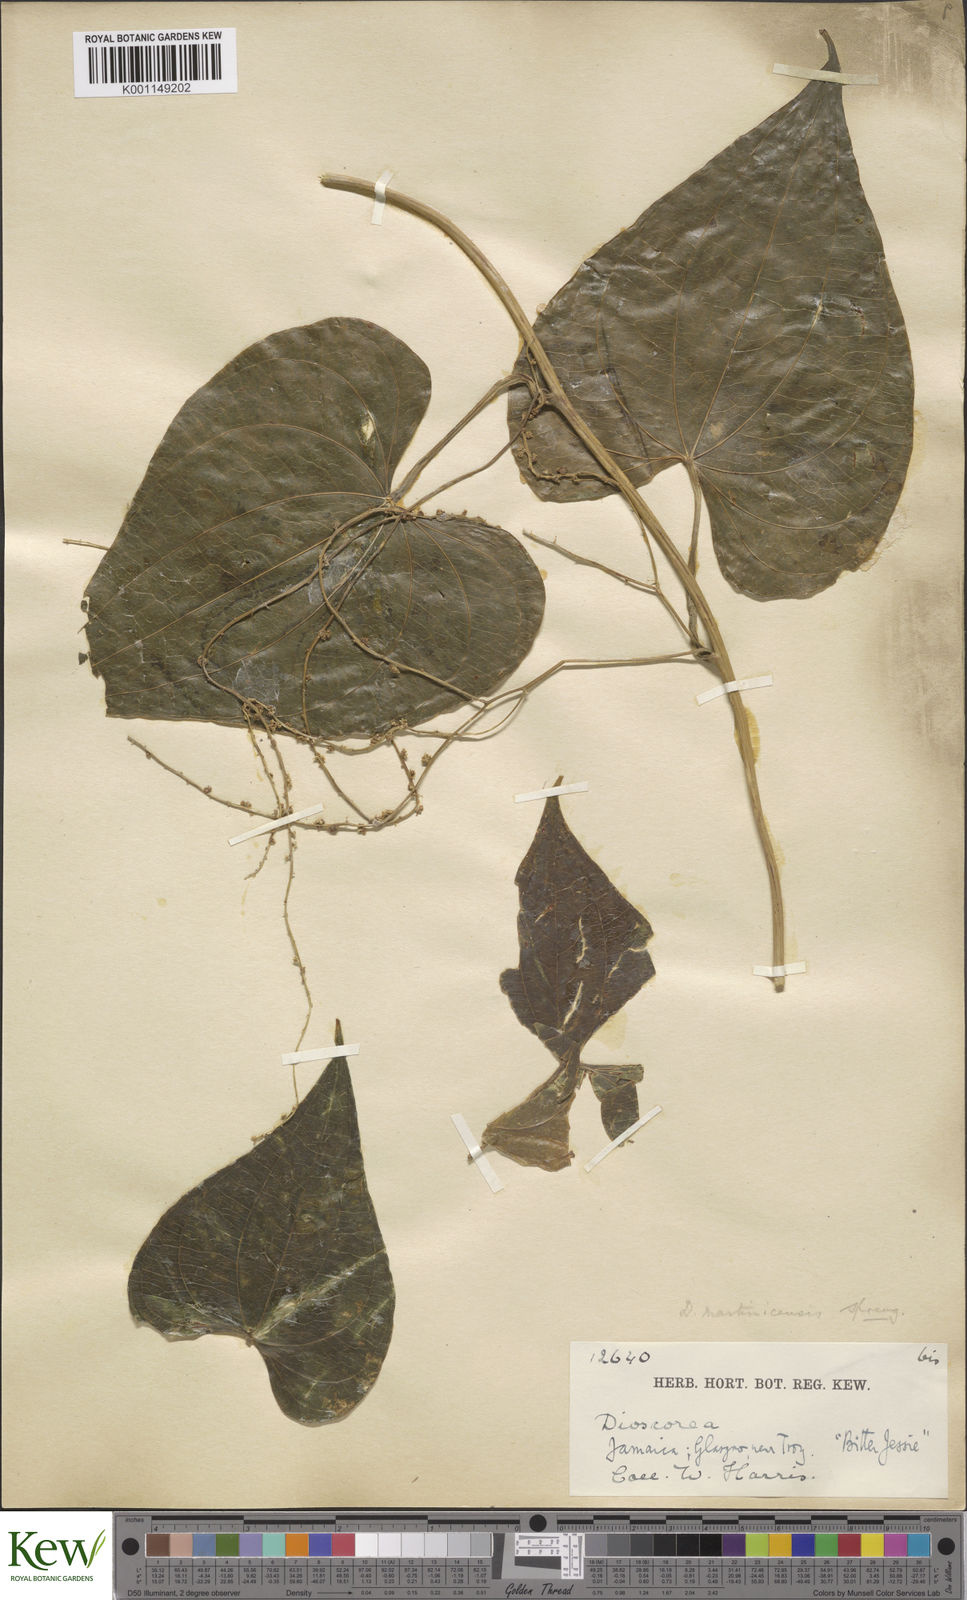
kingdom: Plantae
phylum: Tracheophyta
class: Liliopsida
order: Dioscoreales
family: Dioscoreaceae
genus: Dioscorea
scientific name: Dioscorea polygonoides
